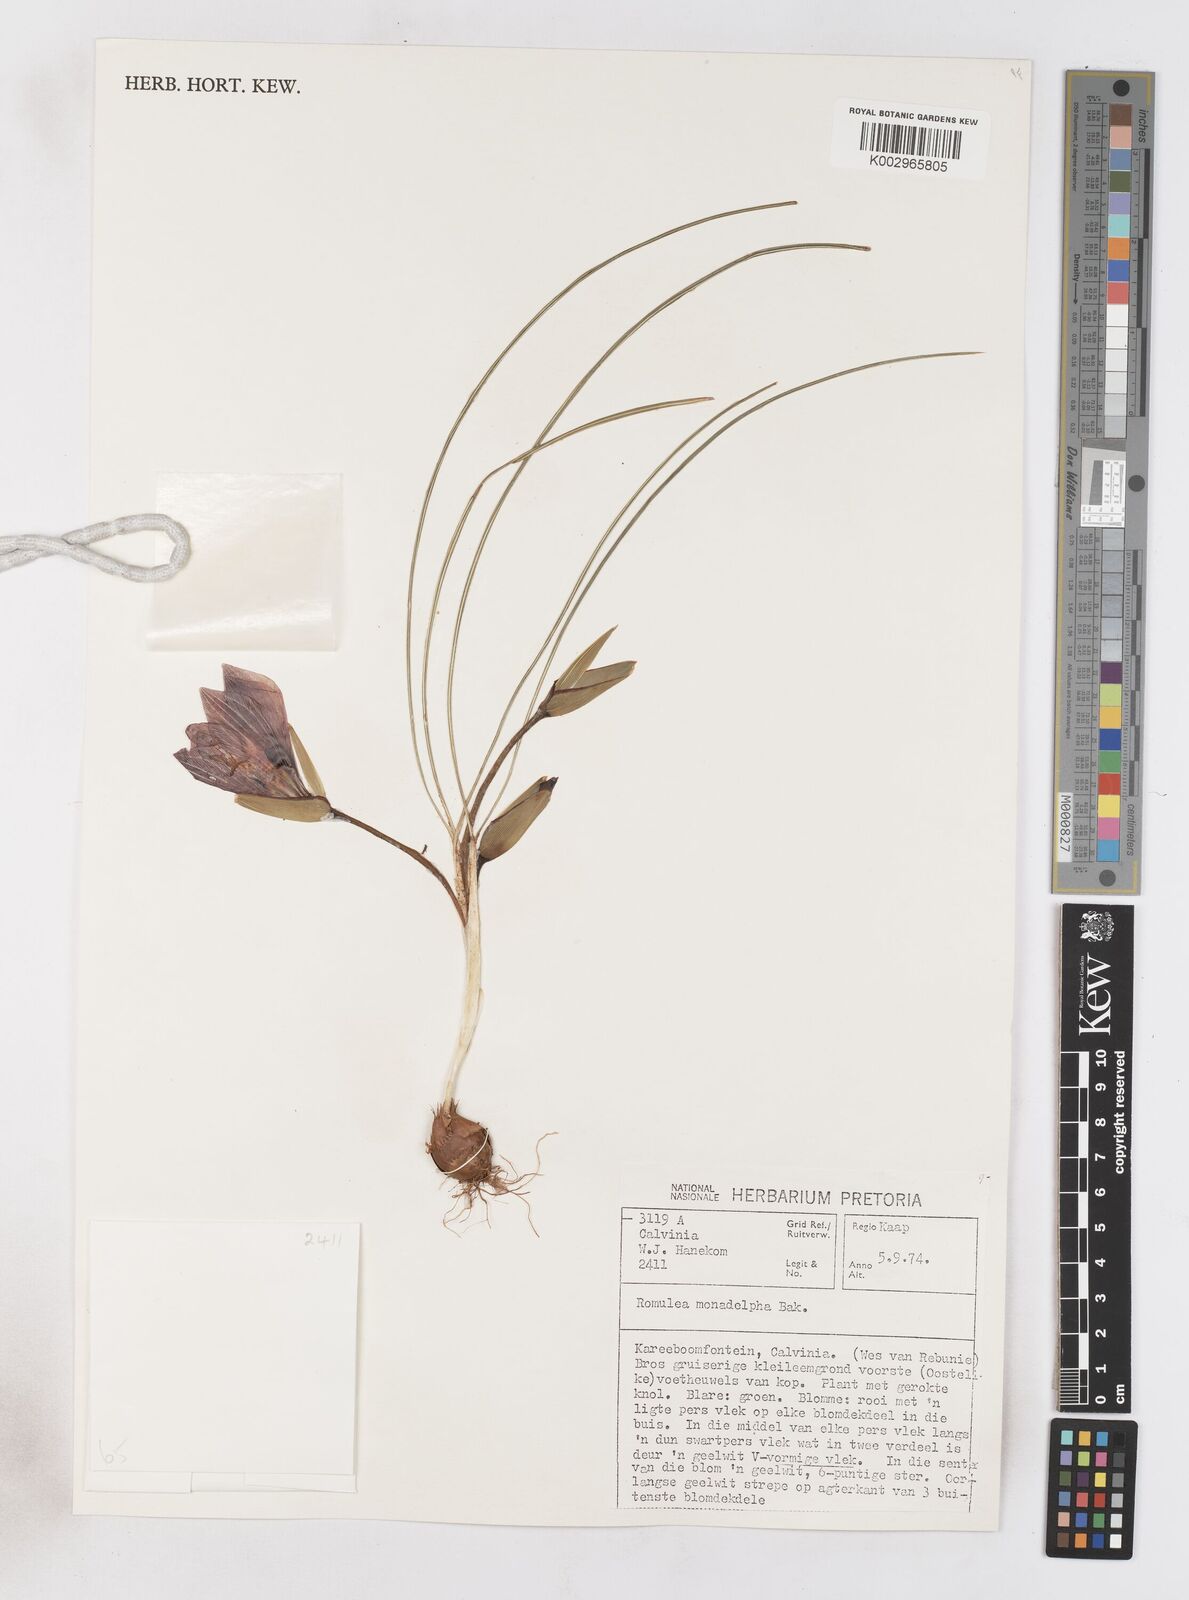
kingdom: Plantae
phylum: Tracheophyta
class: Liliopsida
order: Asparagales
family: Iridaceae
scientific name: Iridaceae
